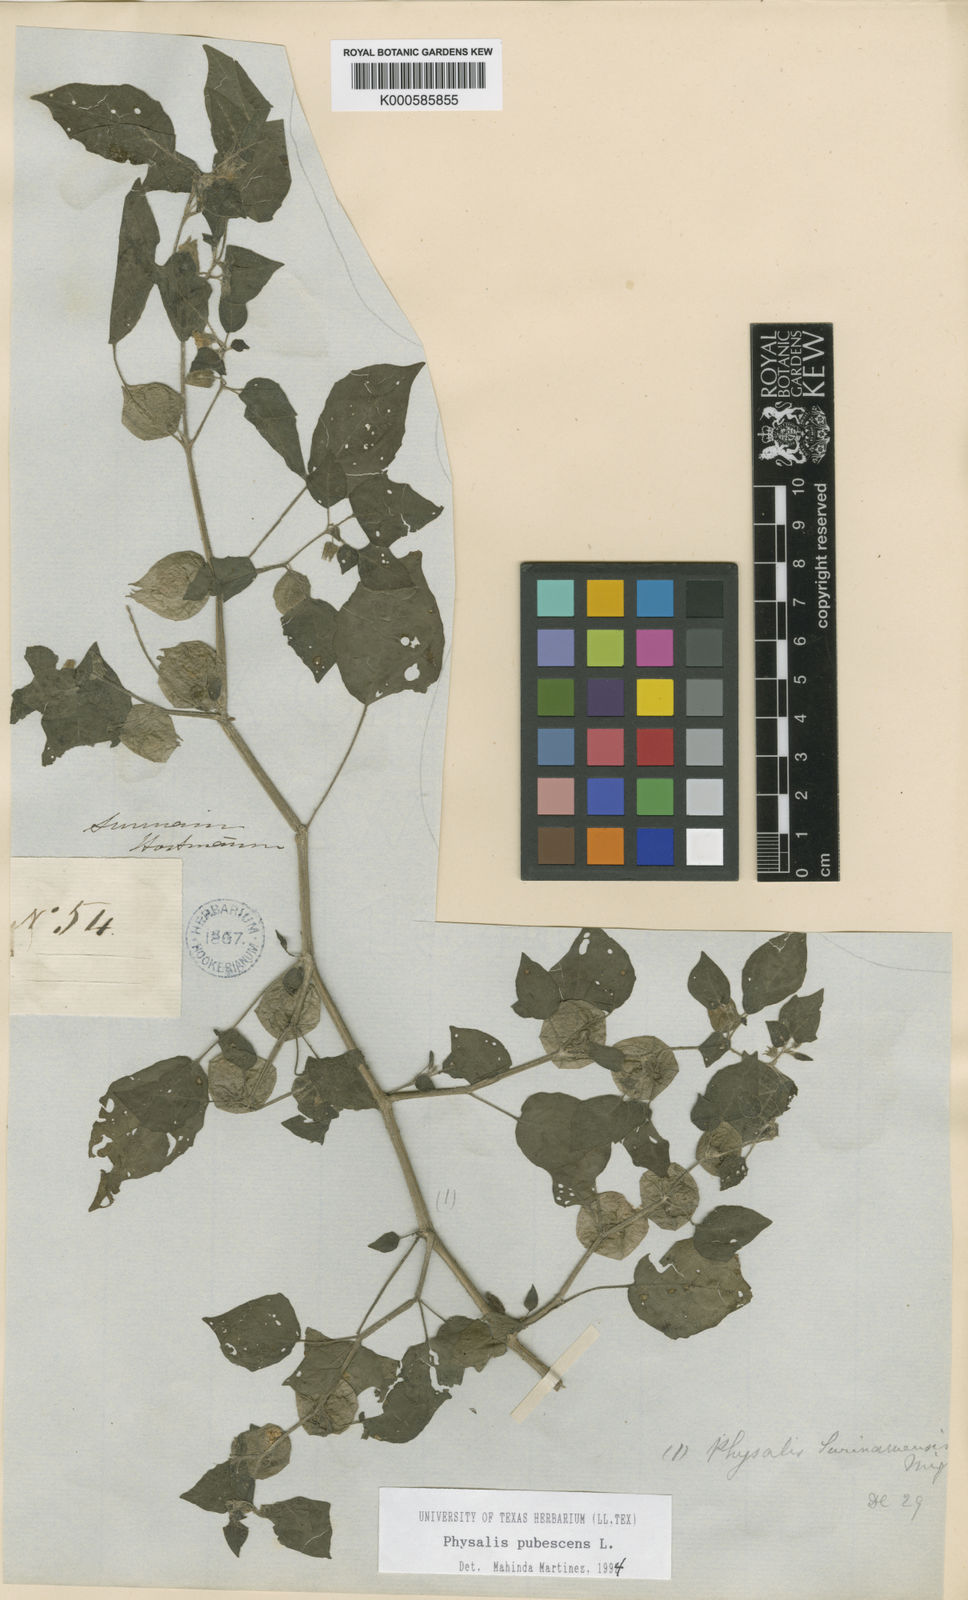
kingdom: Plantae
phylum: Tracheophyta
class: Magnoliopsida
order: Solanales
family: Solanaceae
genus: Physalis
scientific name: Physalis angulata
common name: Angular winter-cherry
